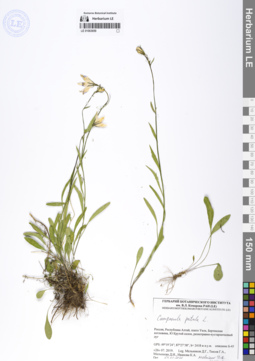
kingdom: Plantae
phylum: Tracheophyta
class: Magnoliopsida
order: Asterales
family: Campanulaceae
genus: Campanula
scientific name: Campanula patula
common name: Spreading bellflower
